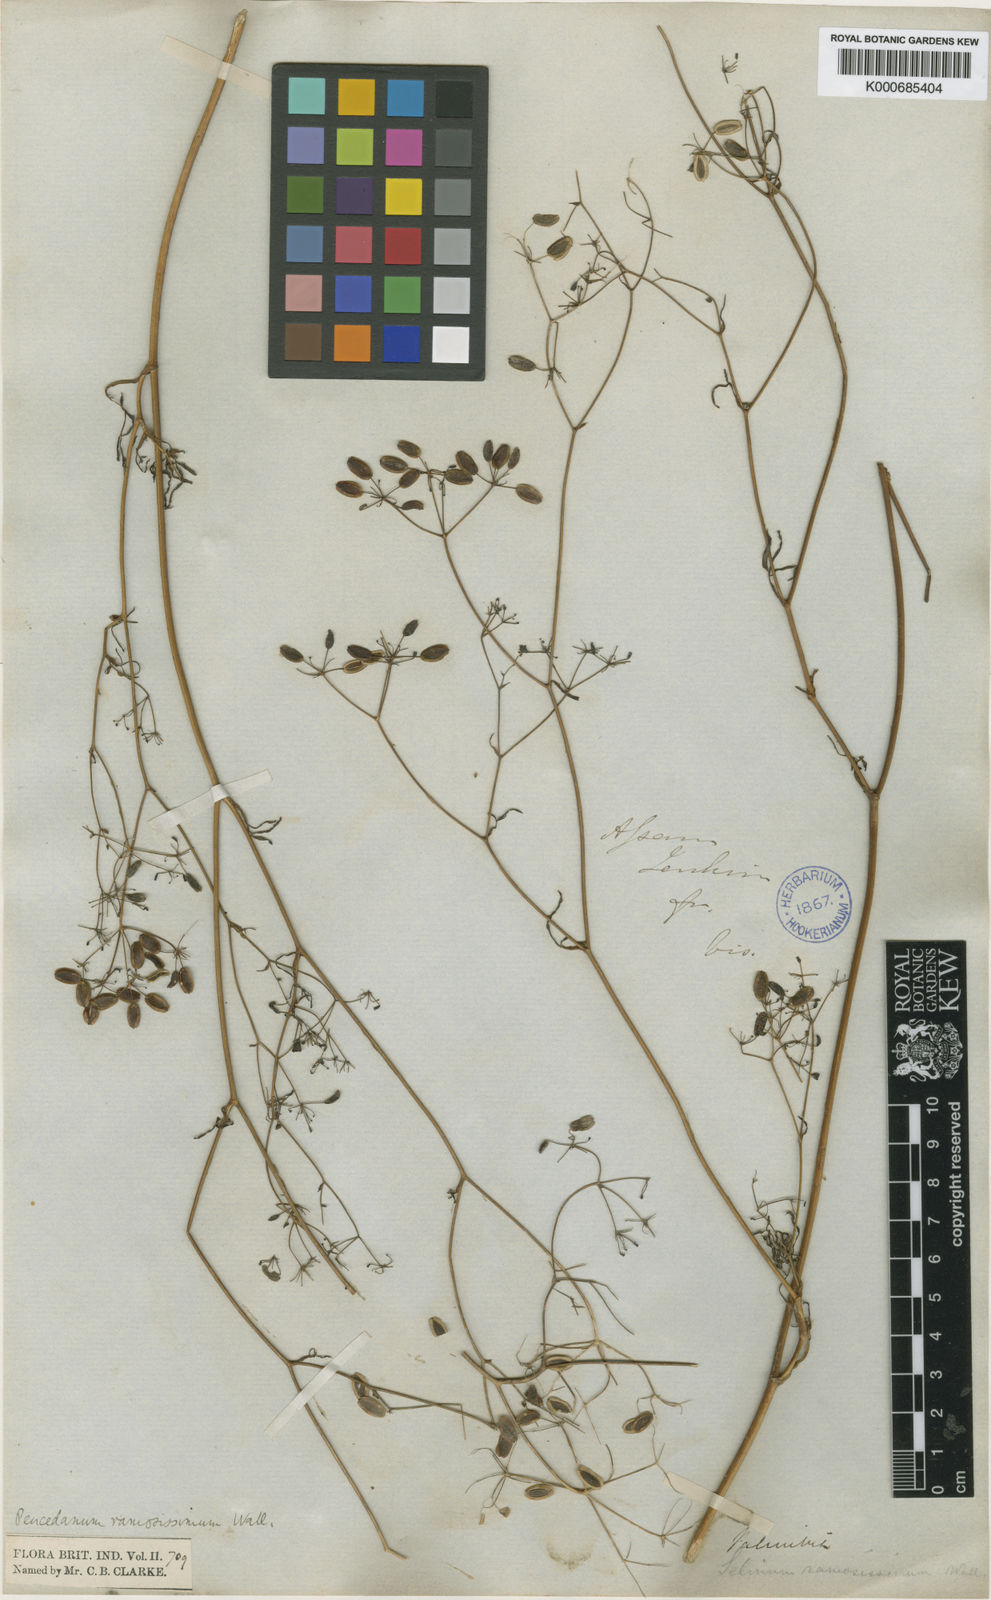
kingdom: Plantae
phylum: Tracheophyta
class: Magnoliopsida
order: Apiales
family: Apiaceae
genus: Peucedanum
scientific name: Peucedanum
